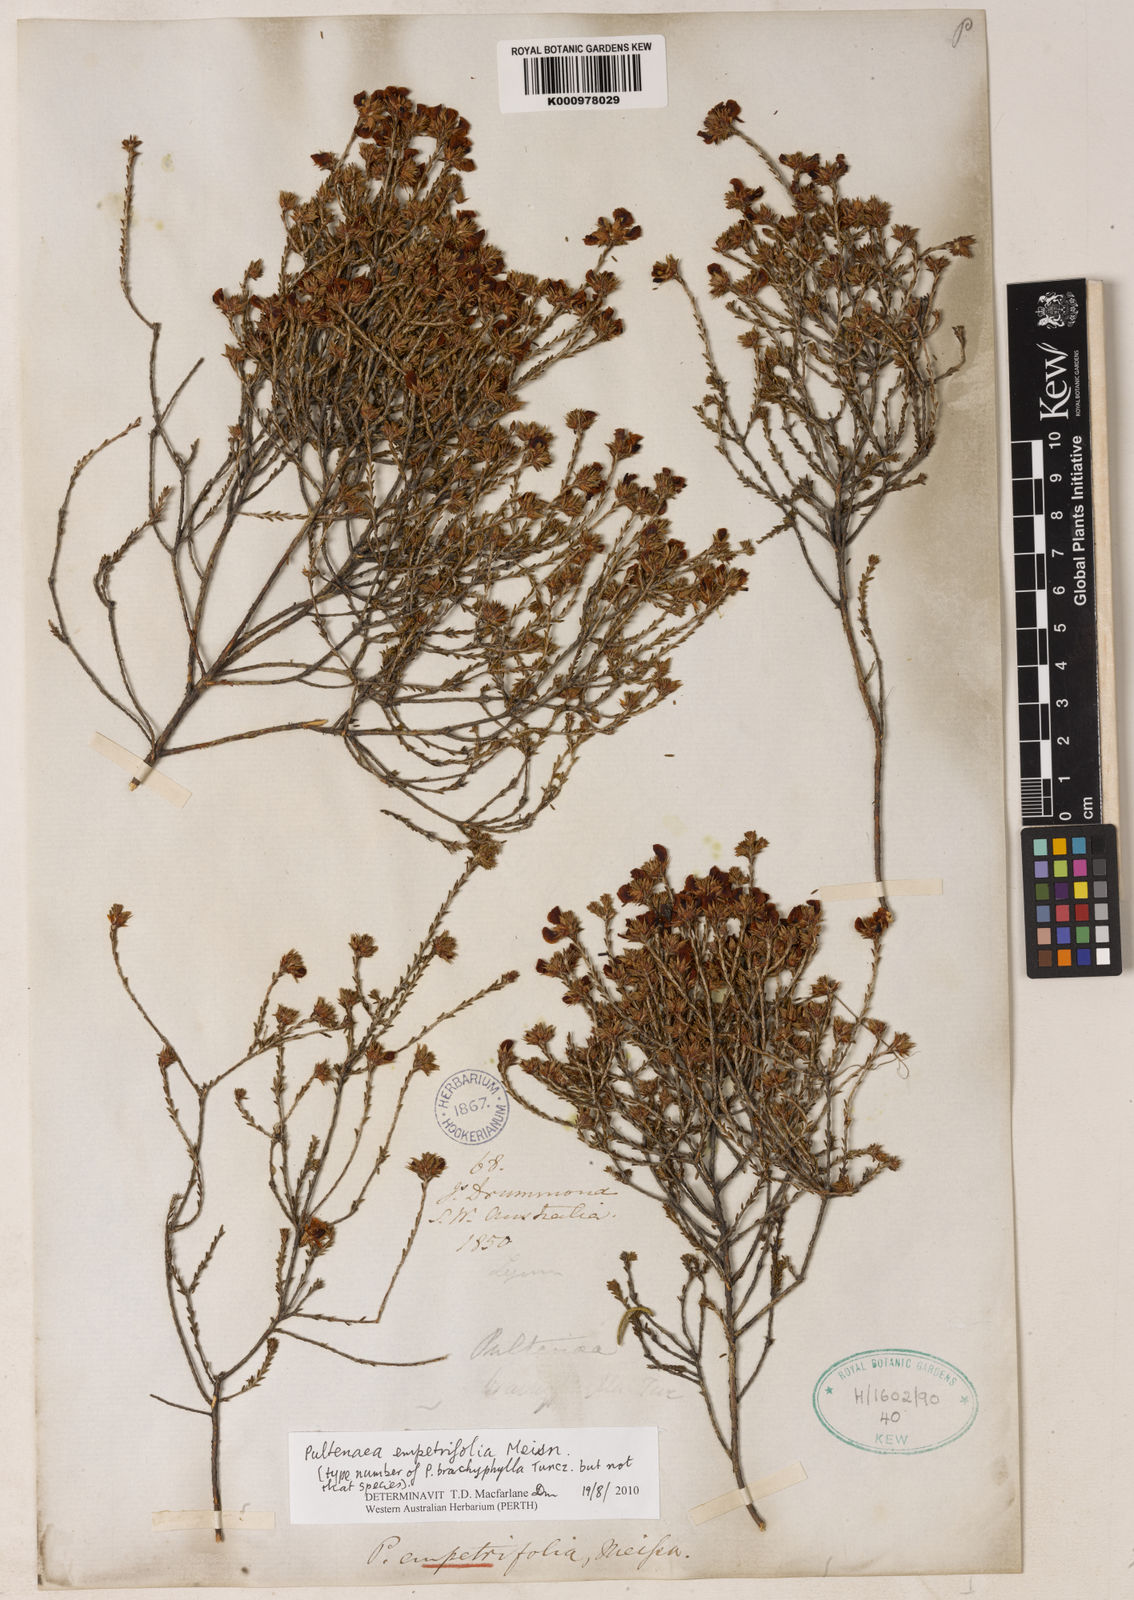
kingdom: Plantae
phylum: Tracheophyta
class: Magnoliopsida
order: Fabales
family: Fabaceae
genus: Pultenaea
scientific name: Pultenaea empetrifolia
